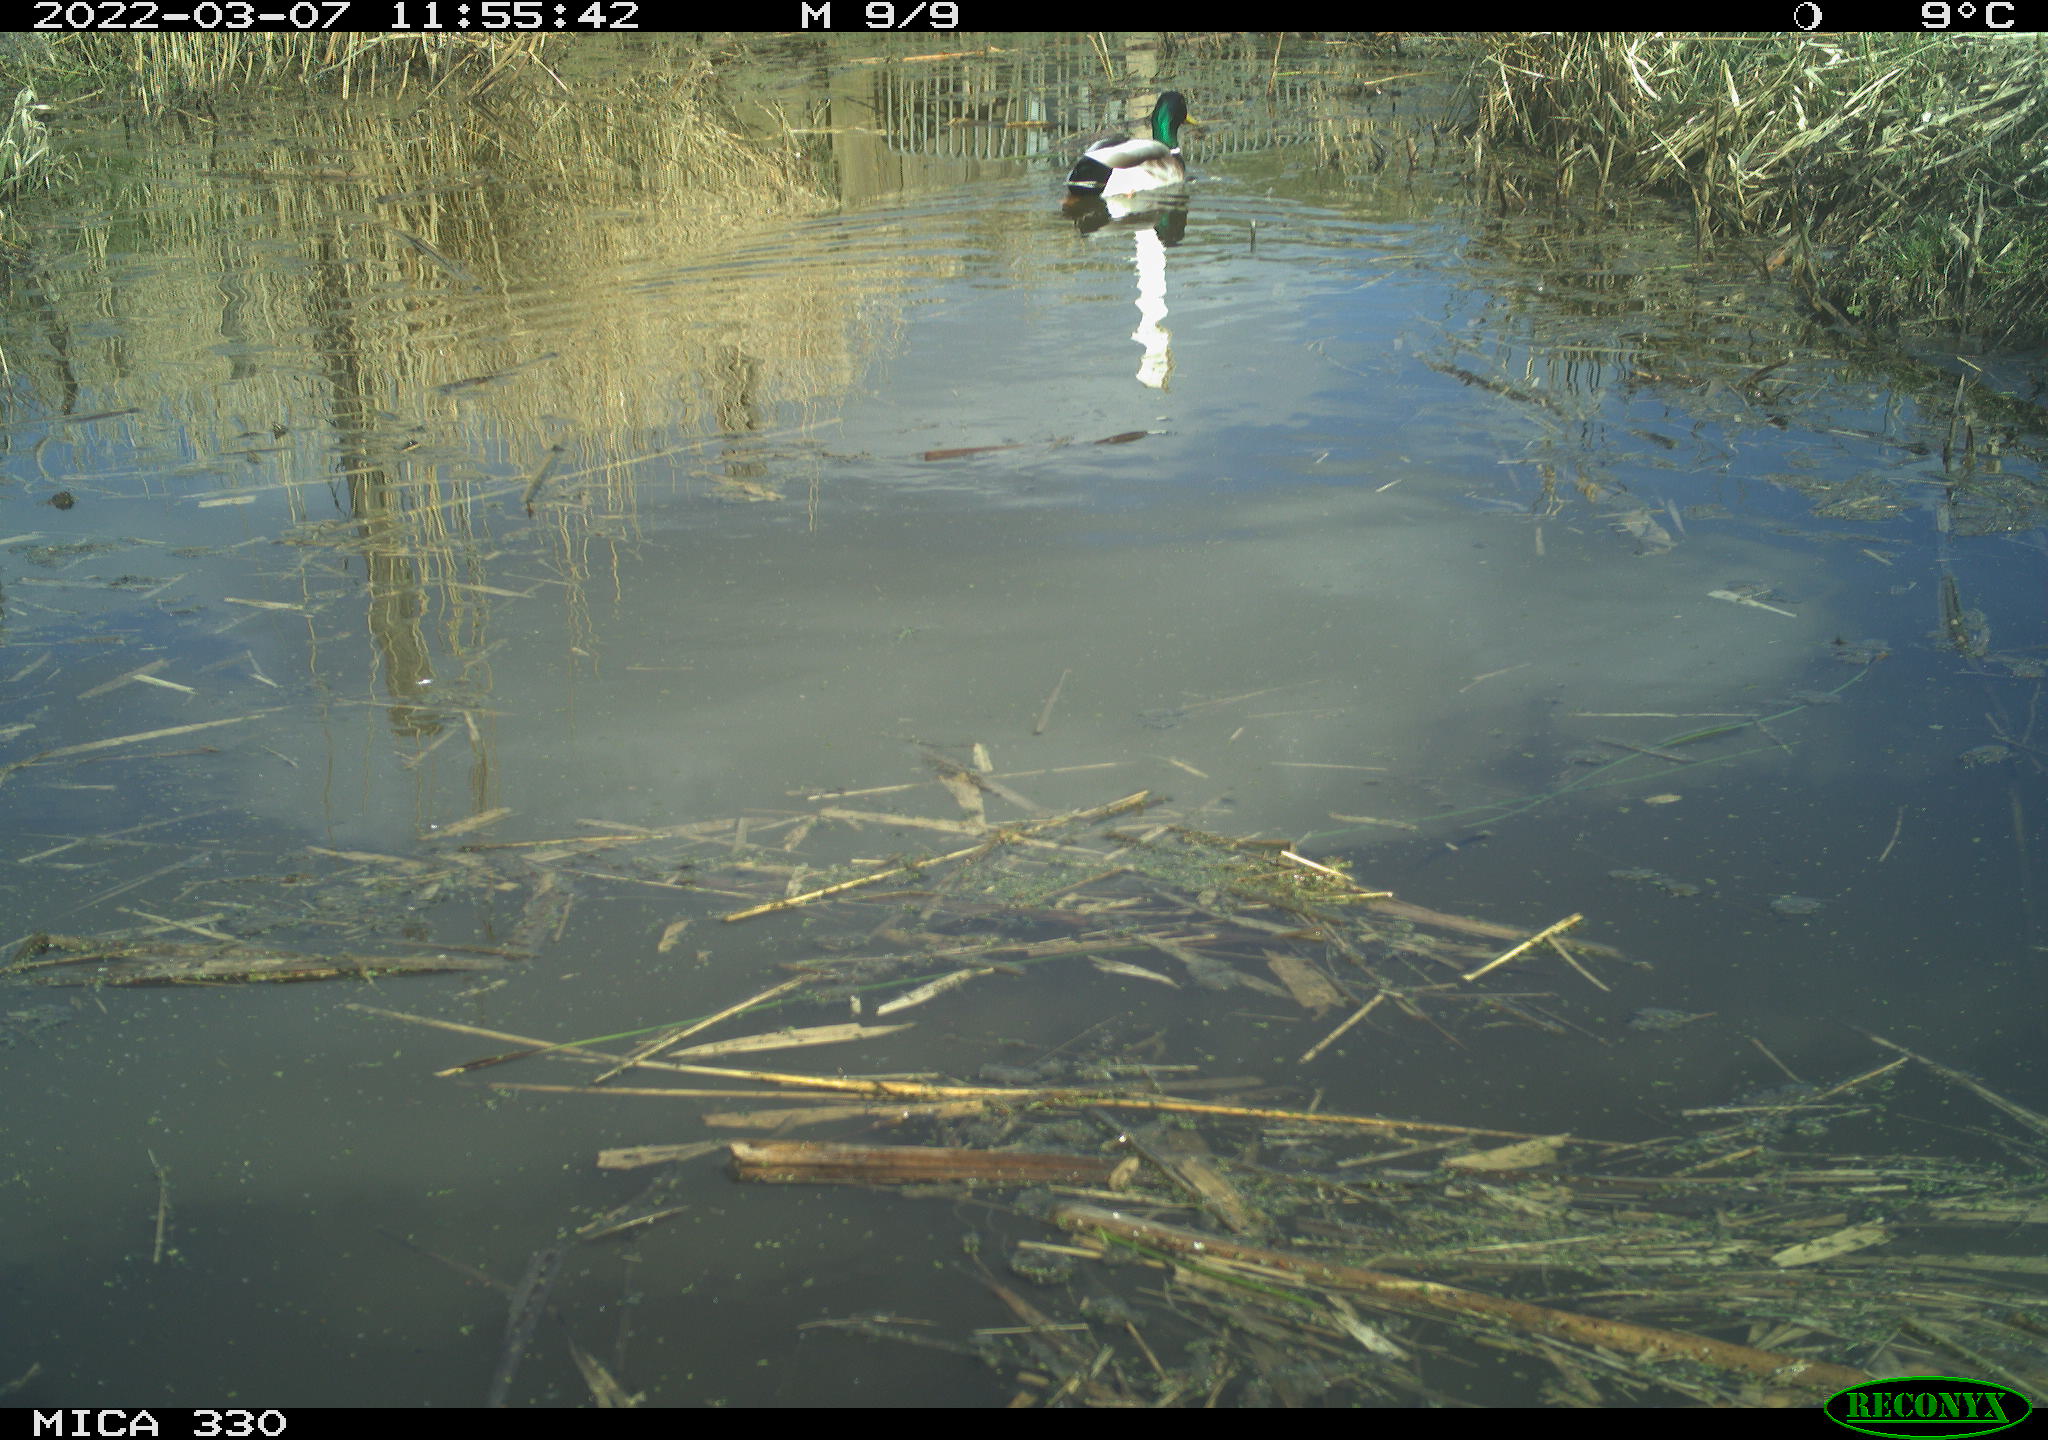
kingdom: Animalia
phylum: Chordata
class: Aves
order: Anseriformes
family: Anatidae
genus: Anas
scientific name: Anas platyrhynchos
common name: Mallard
